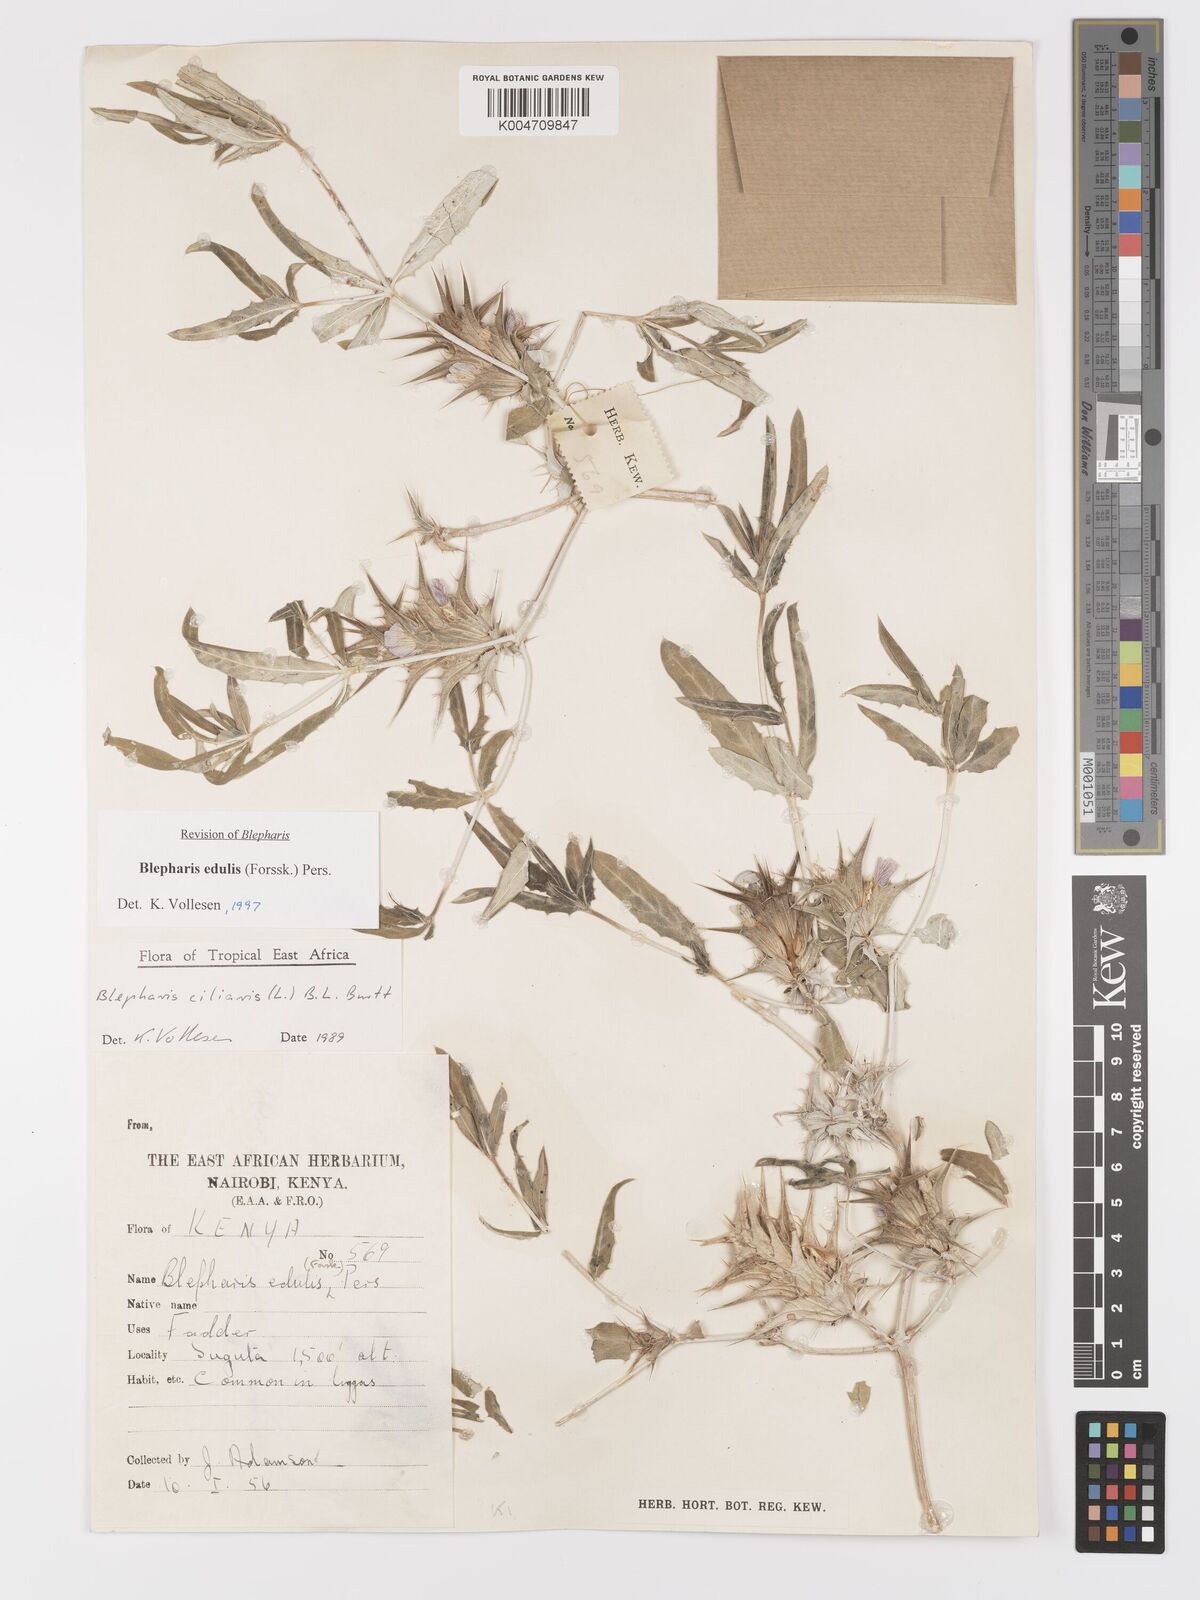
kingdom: Plantae
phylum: Tracheophyta
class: Magnoliopsida
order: Lamiales
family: Acanthaceae
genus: Blepharis
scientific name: Blepharis edulis
